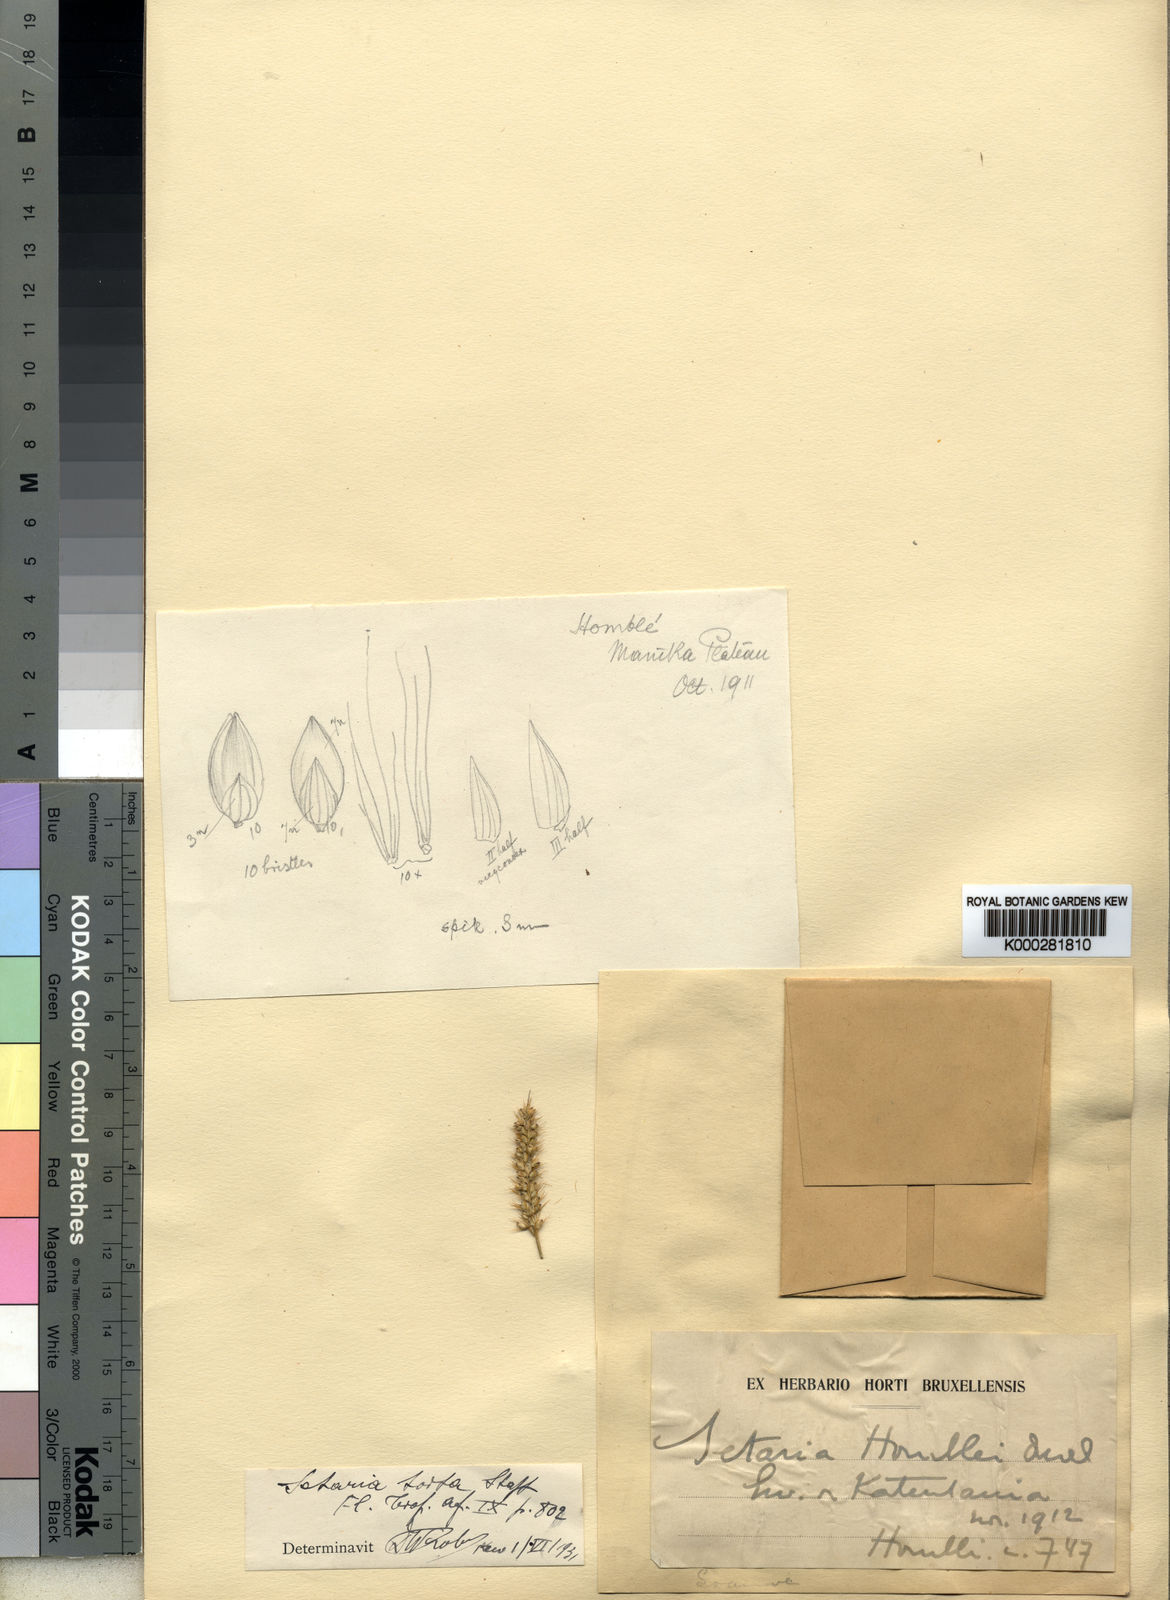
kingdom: Plantae
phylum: Tracheophyta
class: Liliopsida
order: Poales
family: Poaceae
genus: Setaria
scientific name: Setaria sphacelata
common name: African bristlegrass
